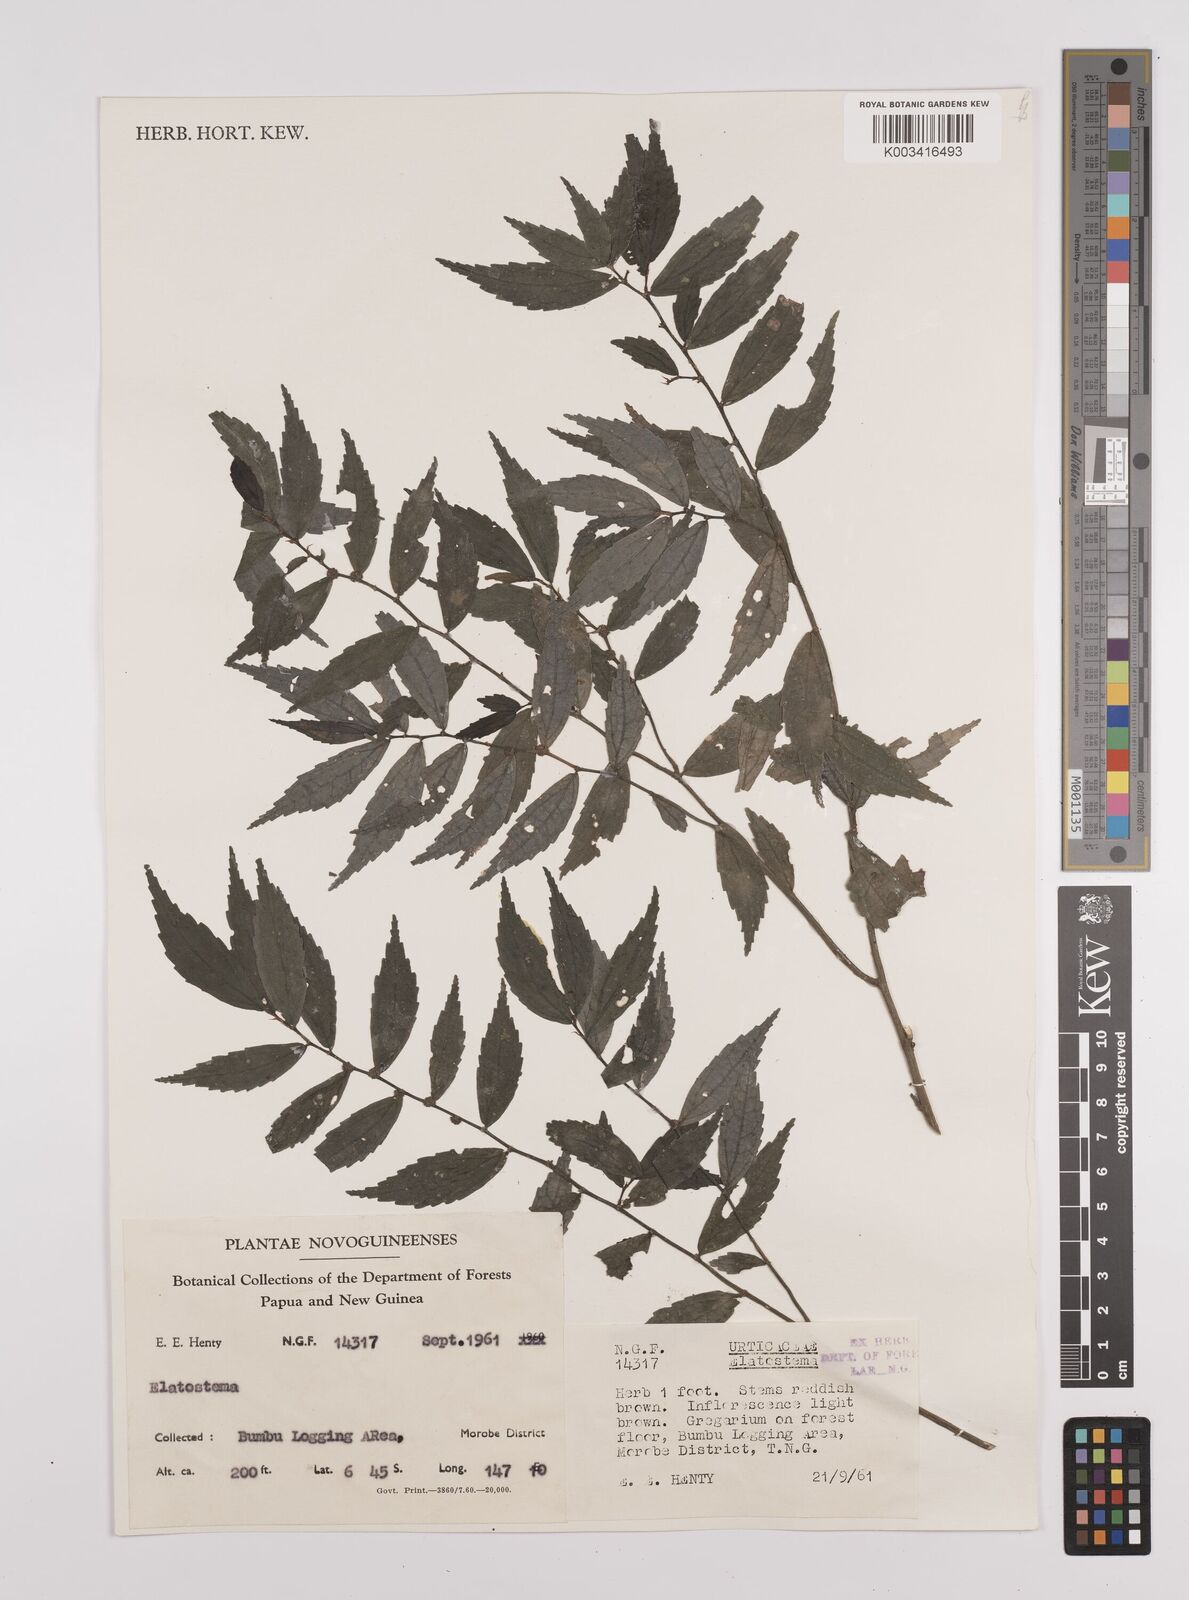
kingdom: Plantae
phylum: Tracheophyta
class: Magnoliopsida
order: Rosales
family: Urticaceae
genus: Elatostema
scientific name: Elatostema
